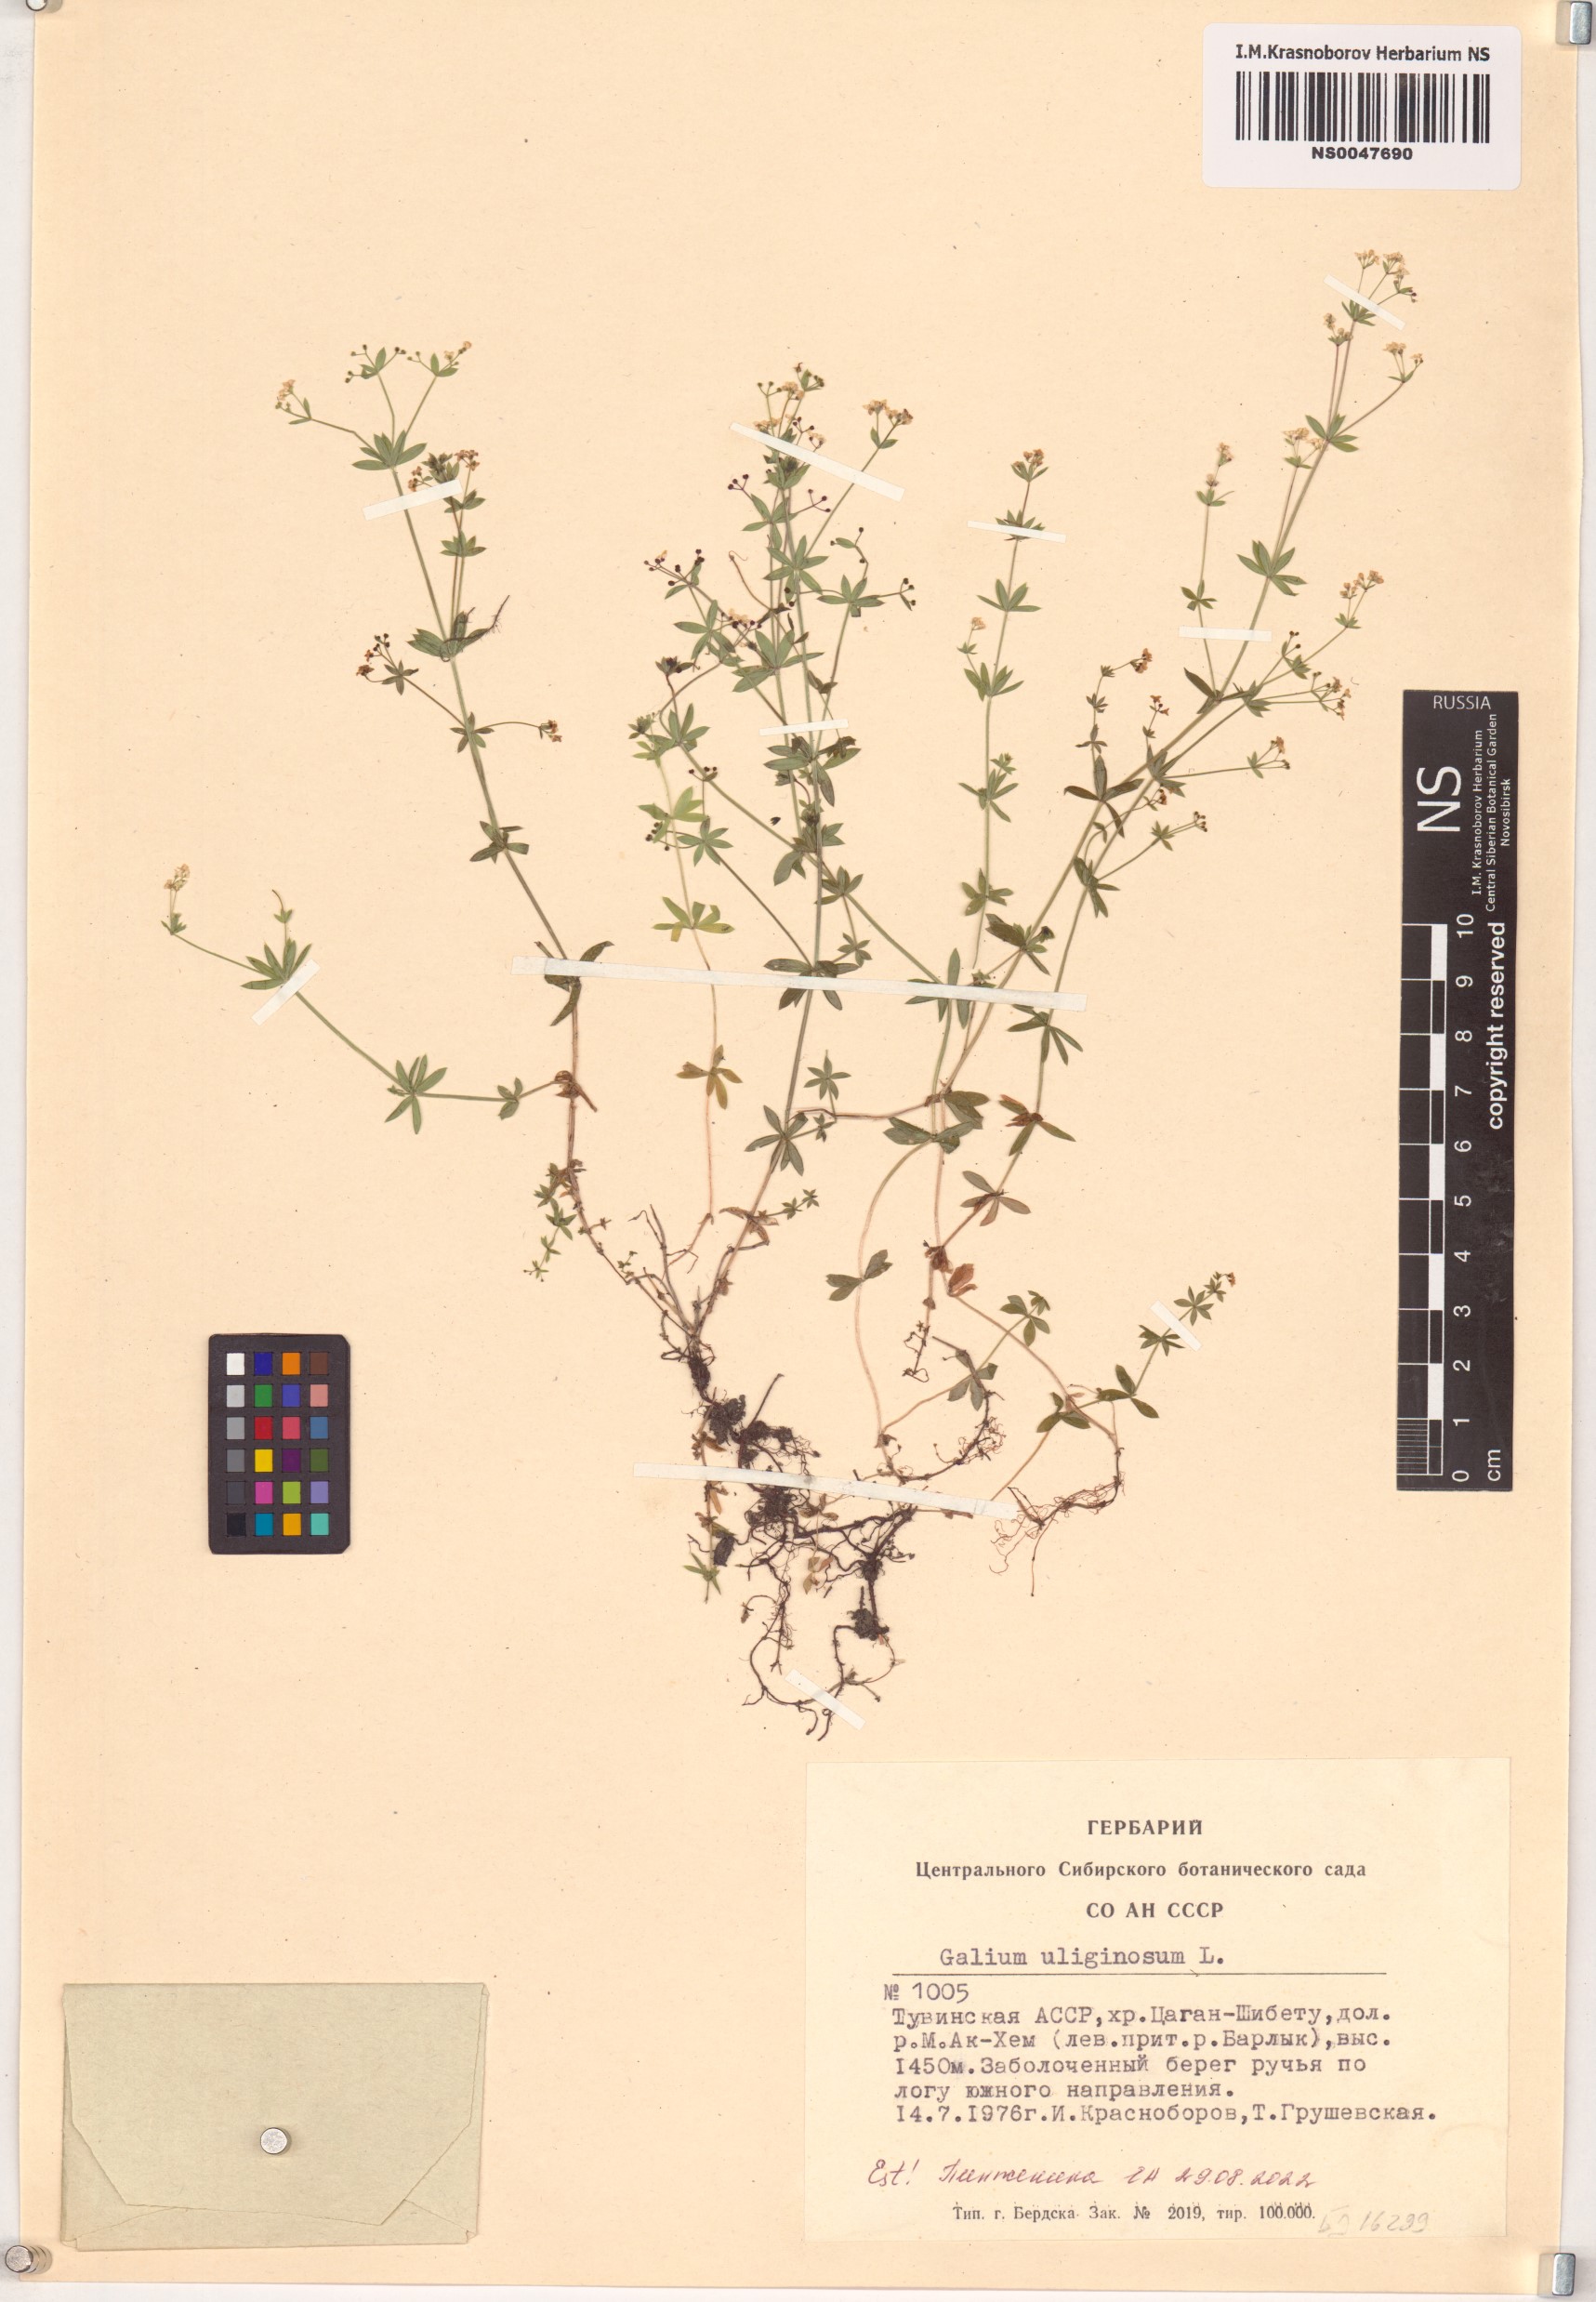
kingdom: Plantae
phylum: Tracheophyta
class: Magnoliopsida
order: Gentianales
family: Rubiaceae
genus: Galium
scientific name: Galium uliginosum
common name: Fen bedstraw
